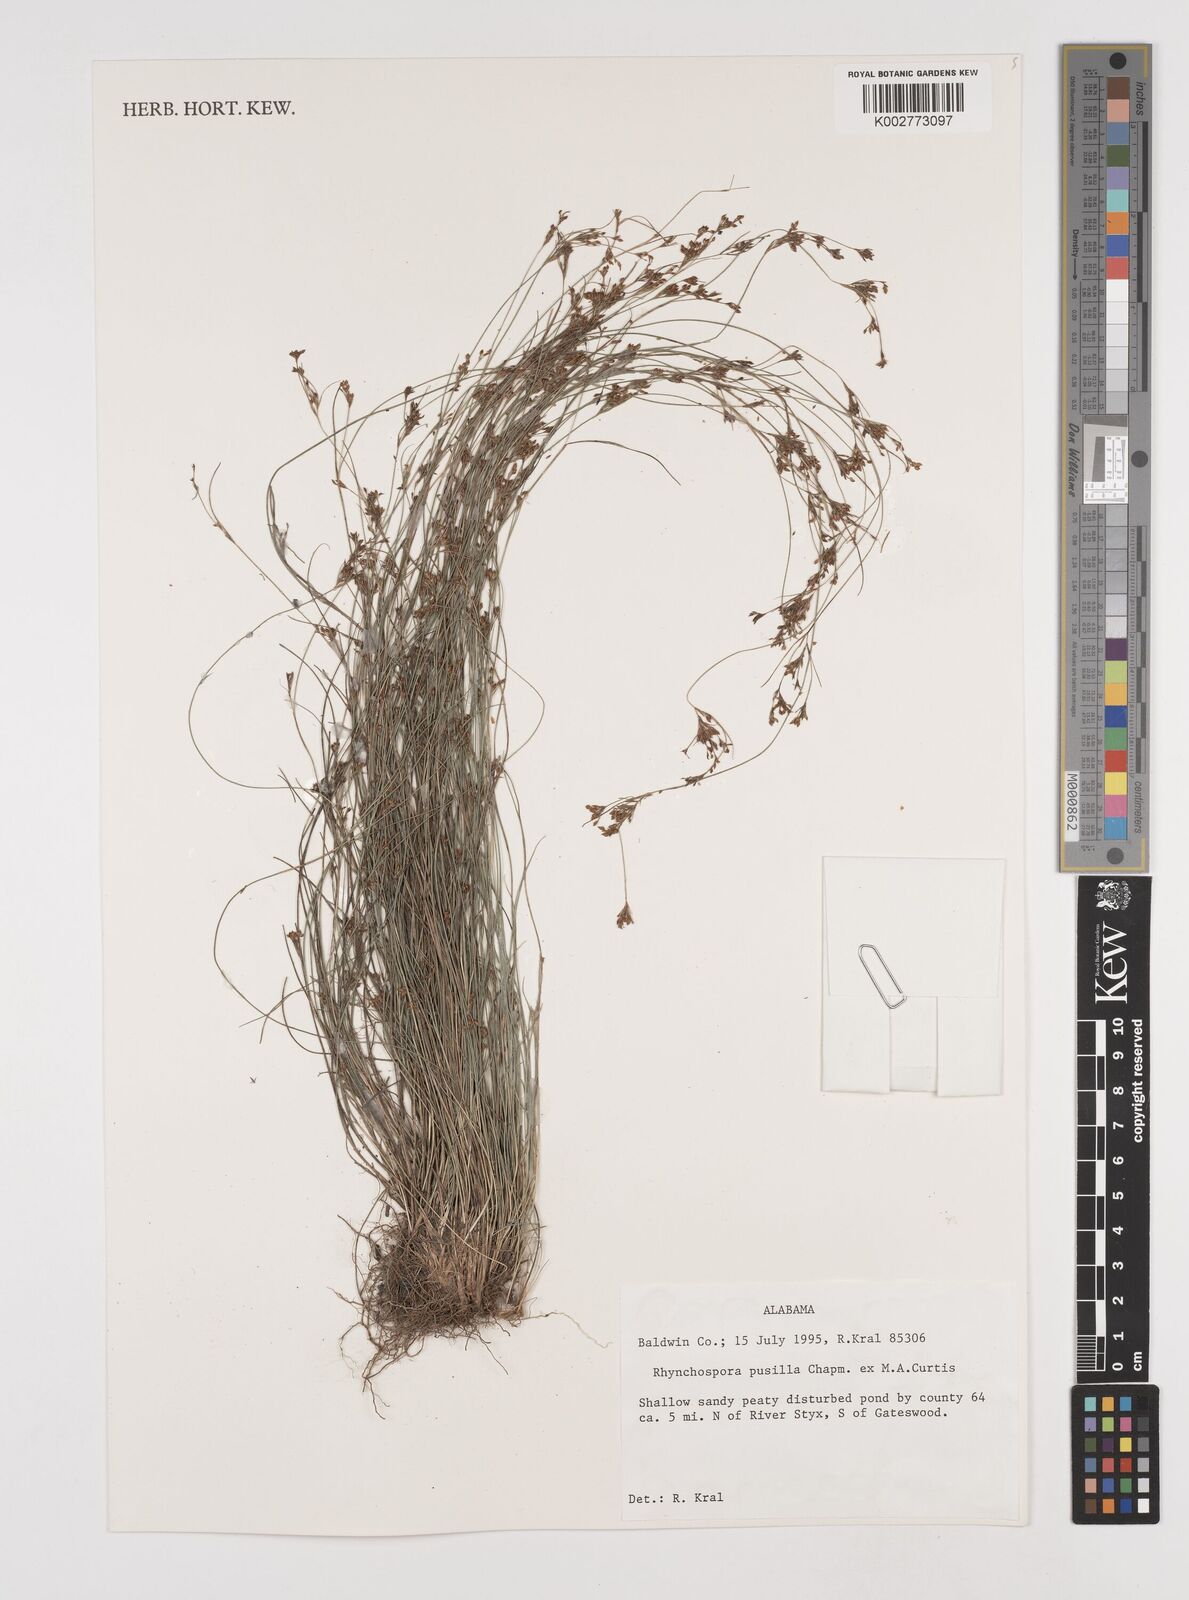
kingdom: Plantae
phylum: Tracheophyta
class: Liliopsida
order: Poales
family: Cyperaceae
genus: Rhynchospora
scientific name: Rhynchospora intermixta
